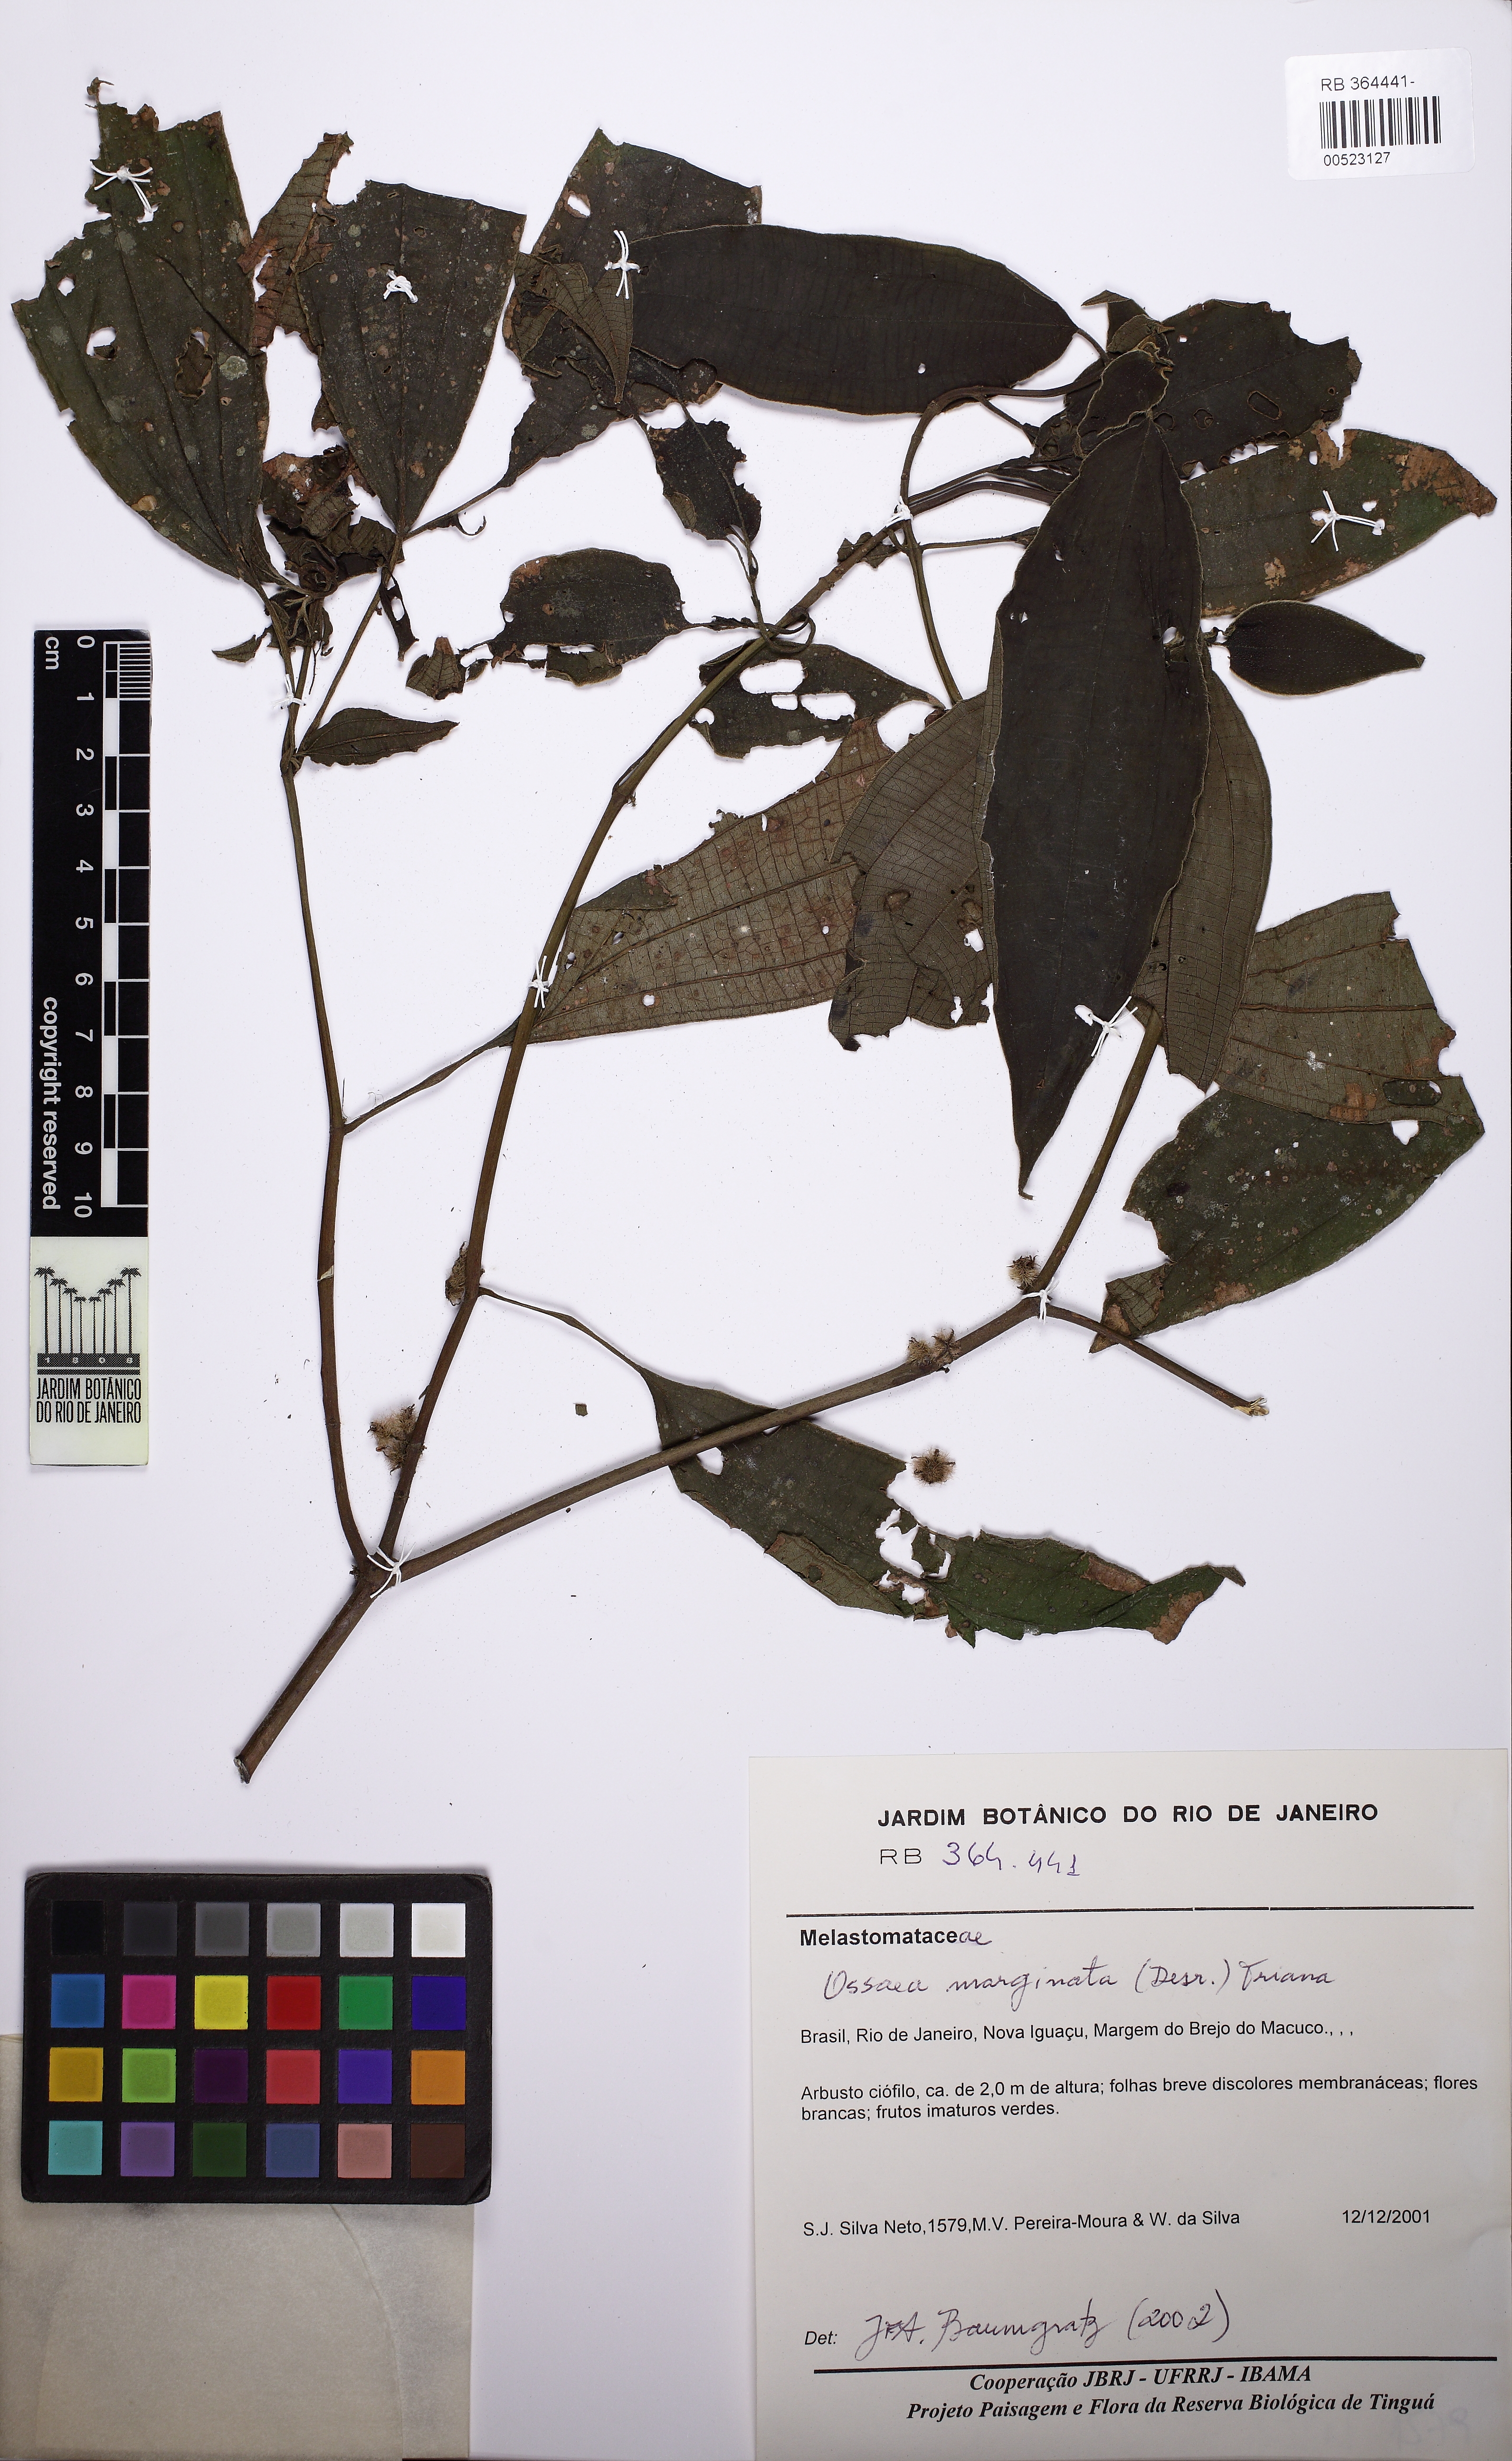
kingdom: Plantae
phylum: Tracheophyta
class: Magnoliopsida
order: Myrtales
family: Melastomataceae
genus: Miconia
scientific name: Miconia leamarginata
